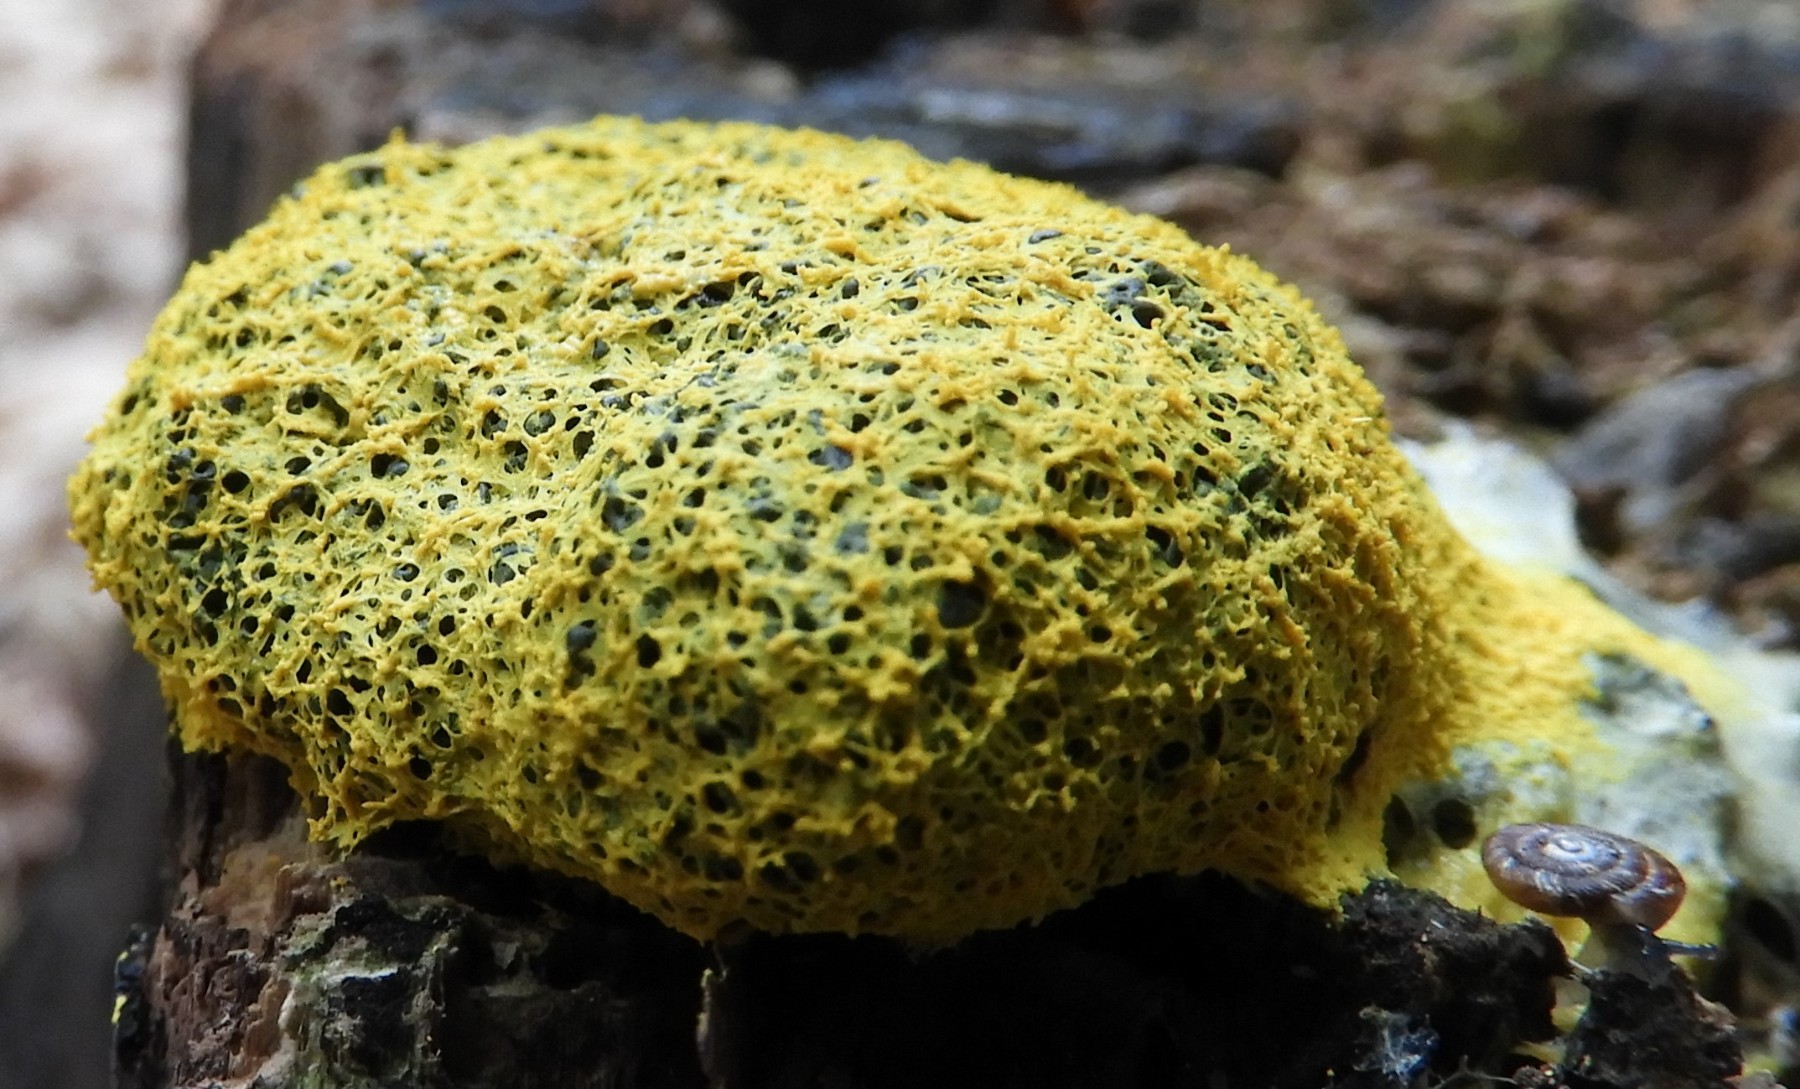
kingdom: Protozoa
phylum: Mycetozoa
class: Myxomycetes
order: Physarales
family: Physaraceae
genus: Fuligo
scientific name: Fuligo septica
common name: gul troldsmør
